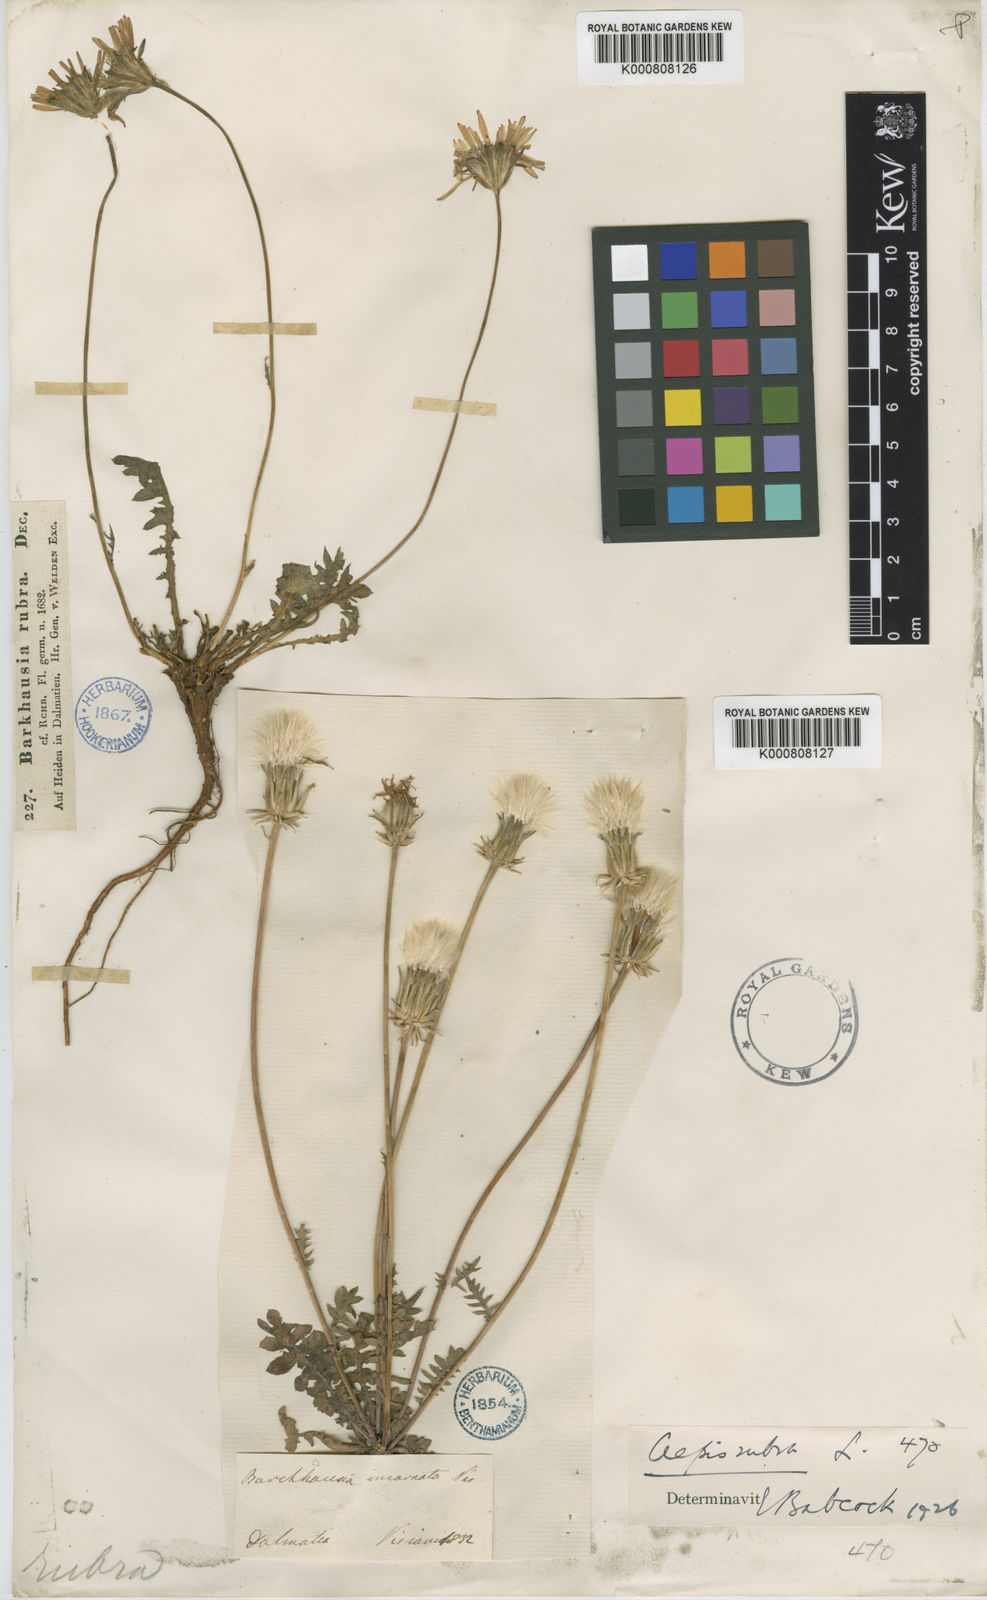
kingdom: Plantae
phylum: Tracheophyta
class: Magnoliopsida
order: Asterales
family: Asteraceae
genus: Crepis
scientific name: Crepis rubra
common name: Pink hawk's-beard
